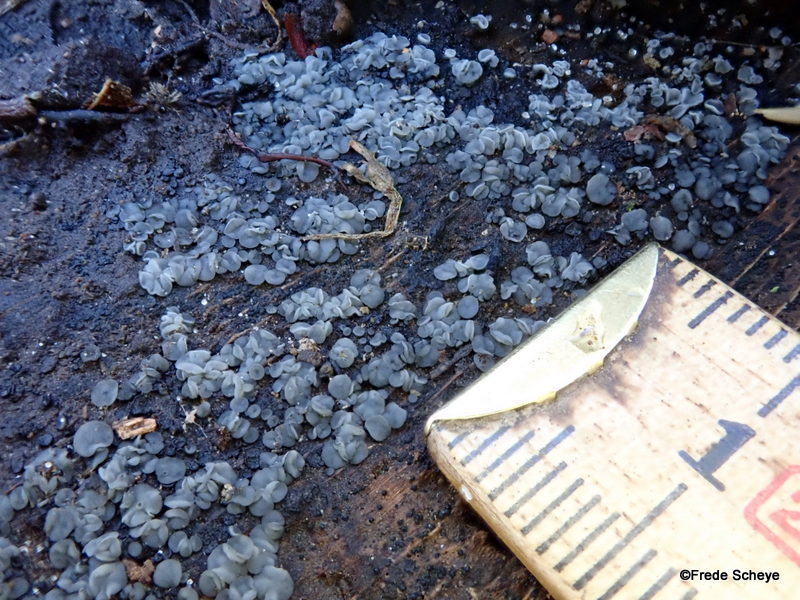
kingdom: Fungi
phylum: Ascomycota
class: Leotiomycetes
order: Helotiales
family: Mollisiaceae
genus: Mollisia
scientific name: Mollisia cinerea
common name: almindelig gråskive
